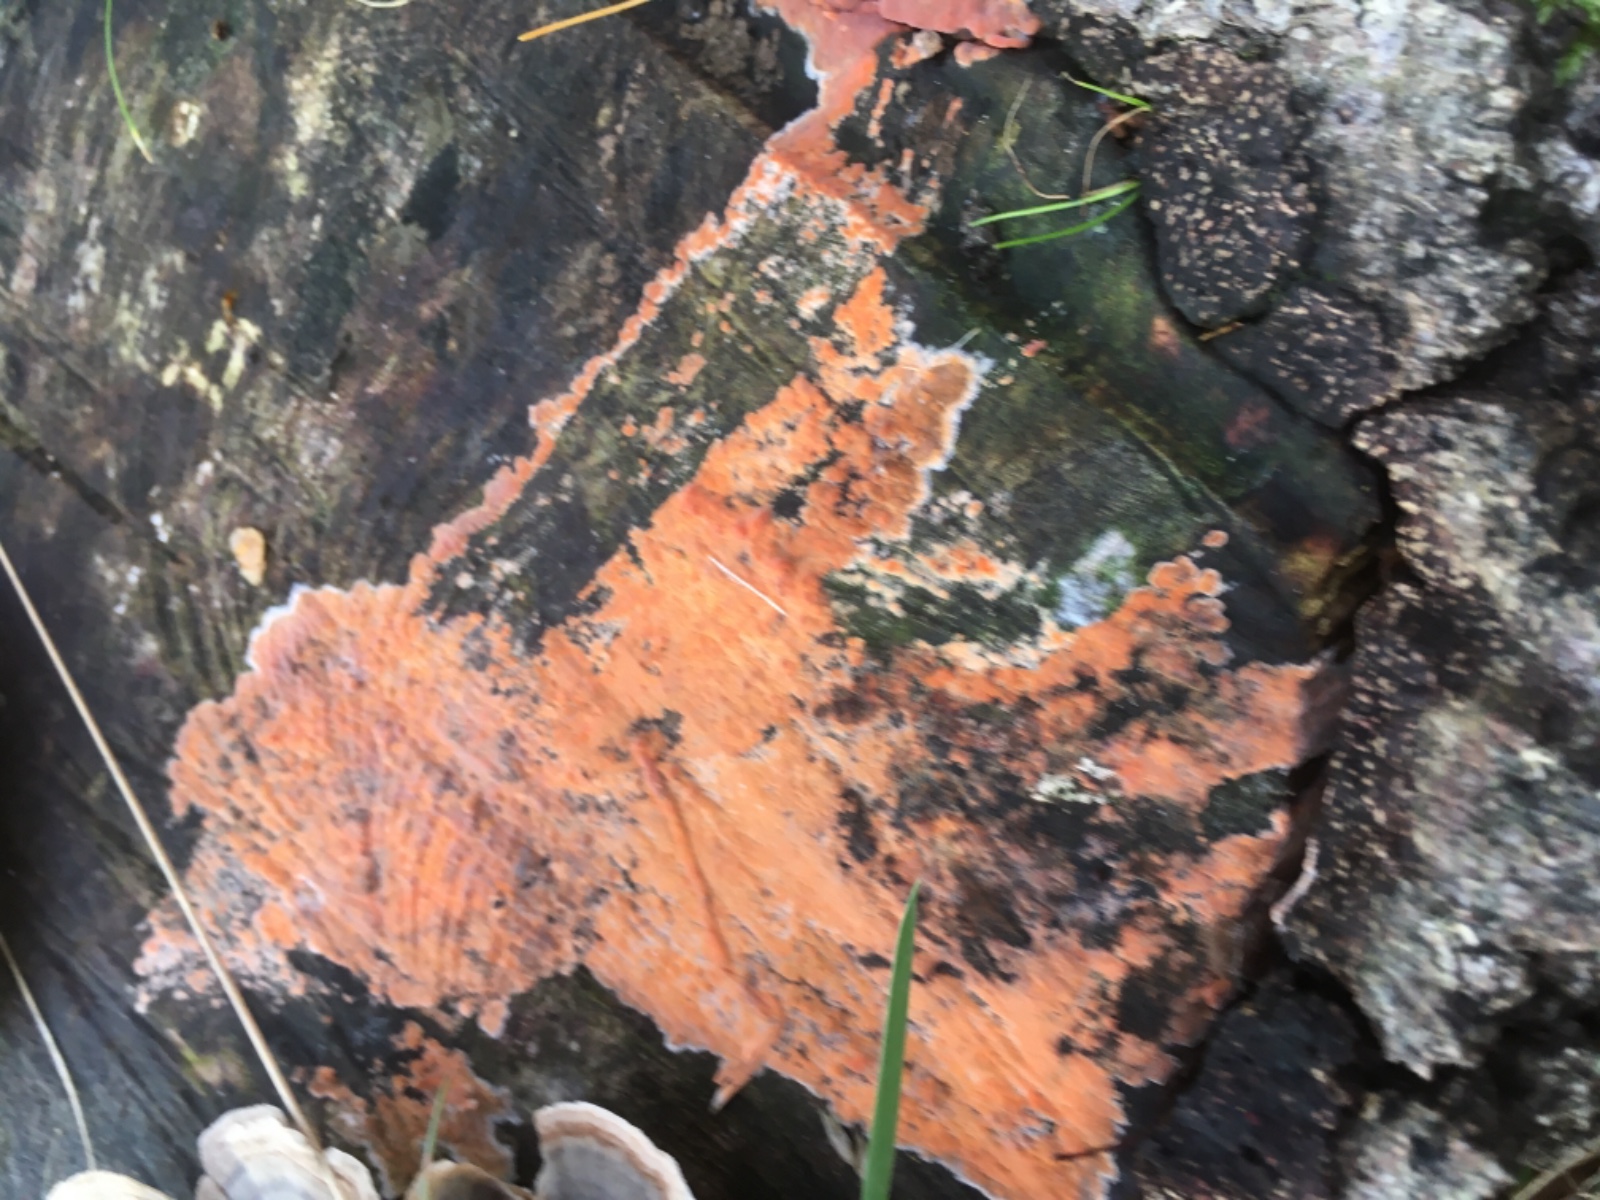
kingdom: Fungi
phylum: Basidiomycota
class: Agaricomycetes
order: Russulales
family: Peniophoraceae
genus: Peniophora
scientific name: Peniophora incarnata
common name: laksefarvet voksskind
